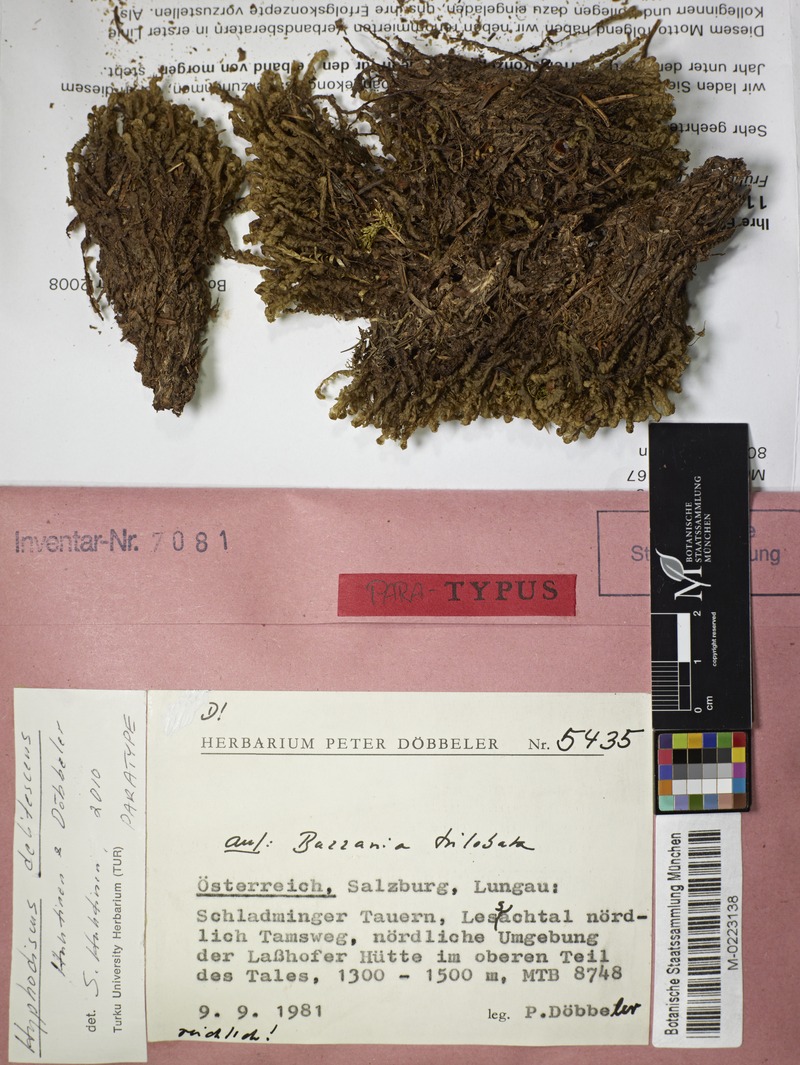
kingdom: Fungi
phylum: Ascomycota
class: Leotiomycetes
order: Helotiales
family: Hyphodiscaceae
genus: Hyphodiscus
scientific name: Hyphodiscus delitescens
